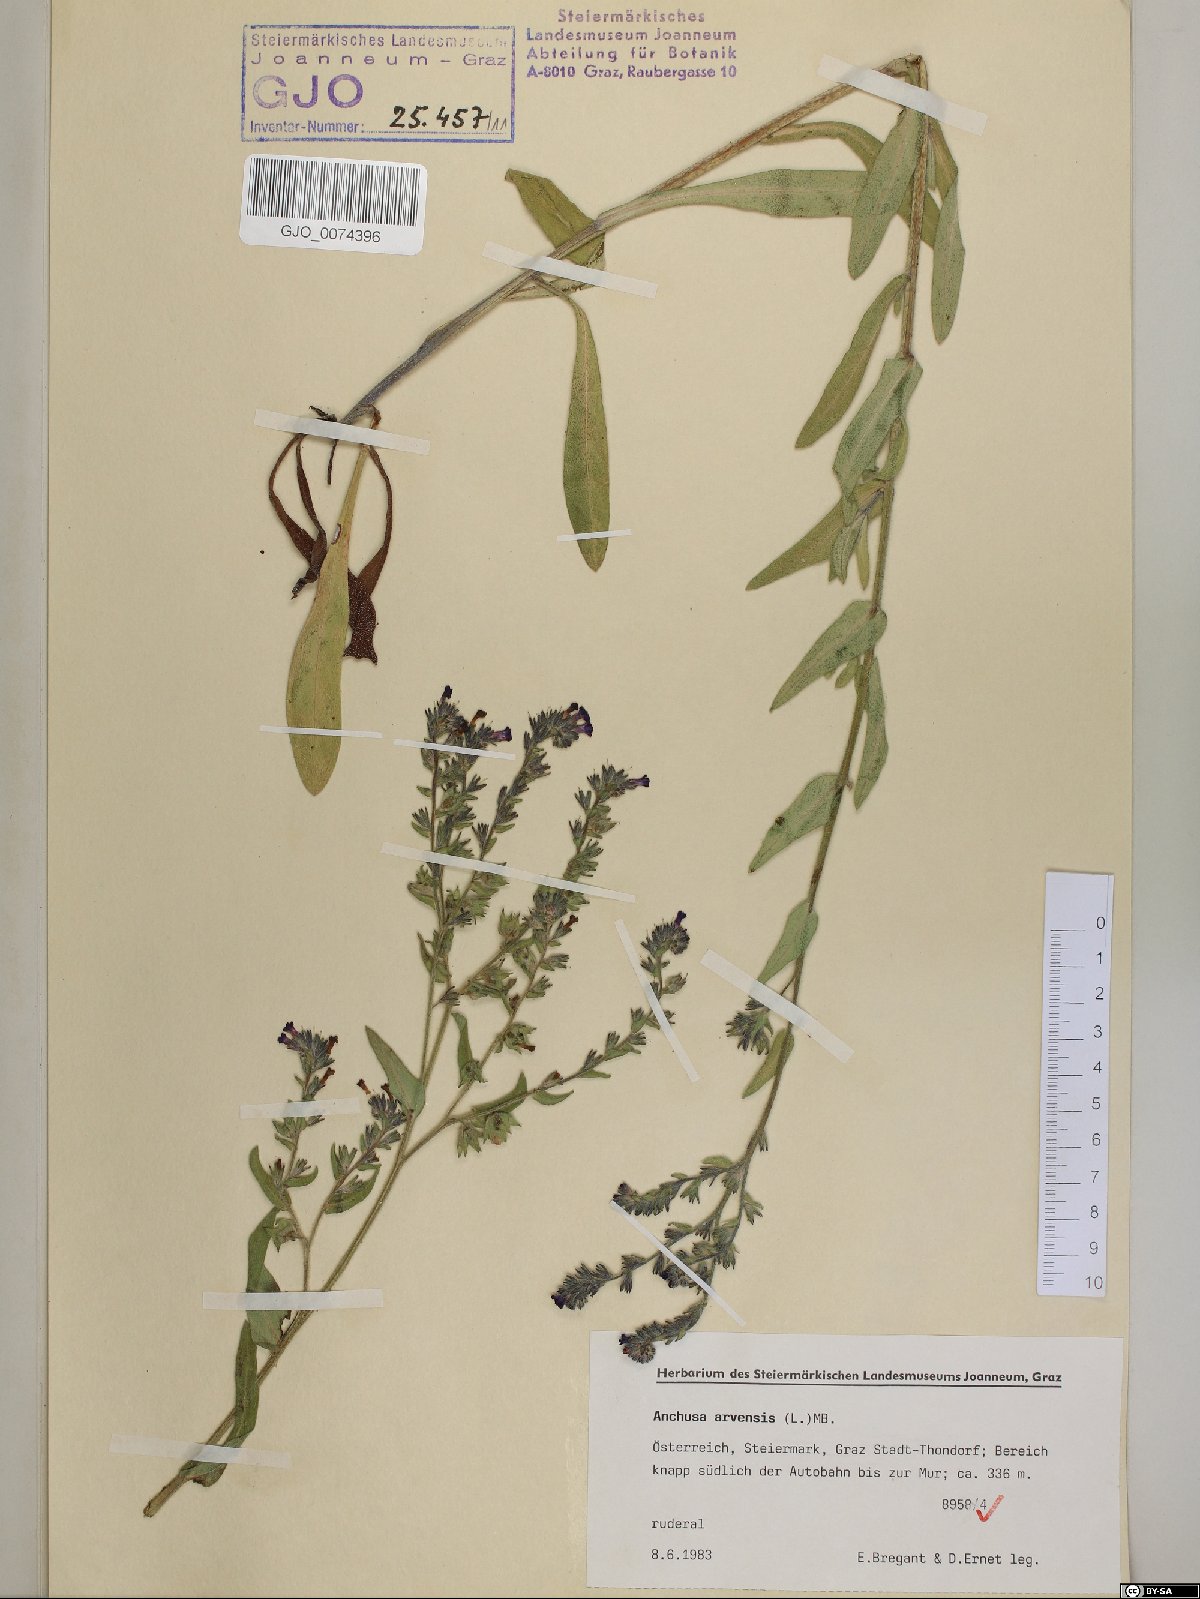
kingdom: Plantae
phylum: Tracheophyta
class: Magnoliopsida
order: Boraginales
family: Boraginaceae
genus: Anchusa
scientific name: Anchusa officinalis
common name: Alkanet
